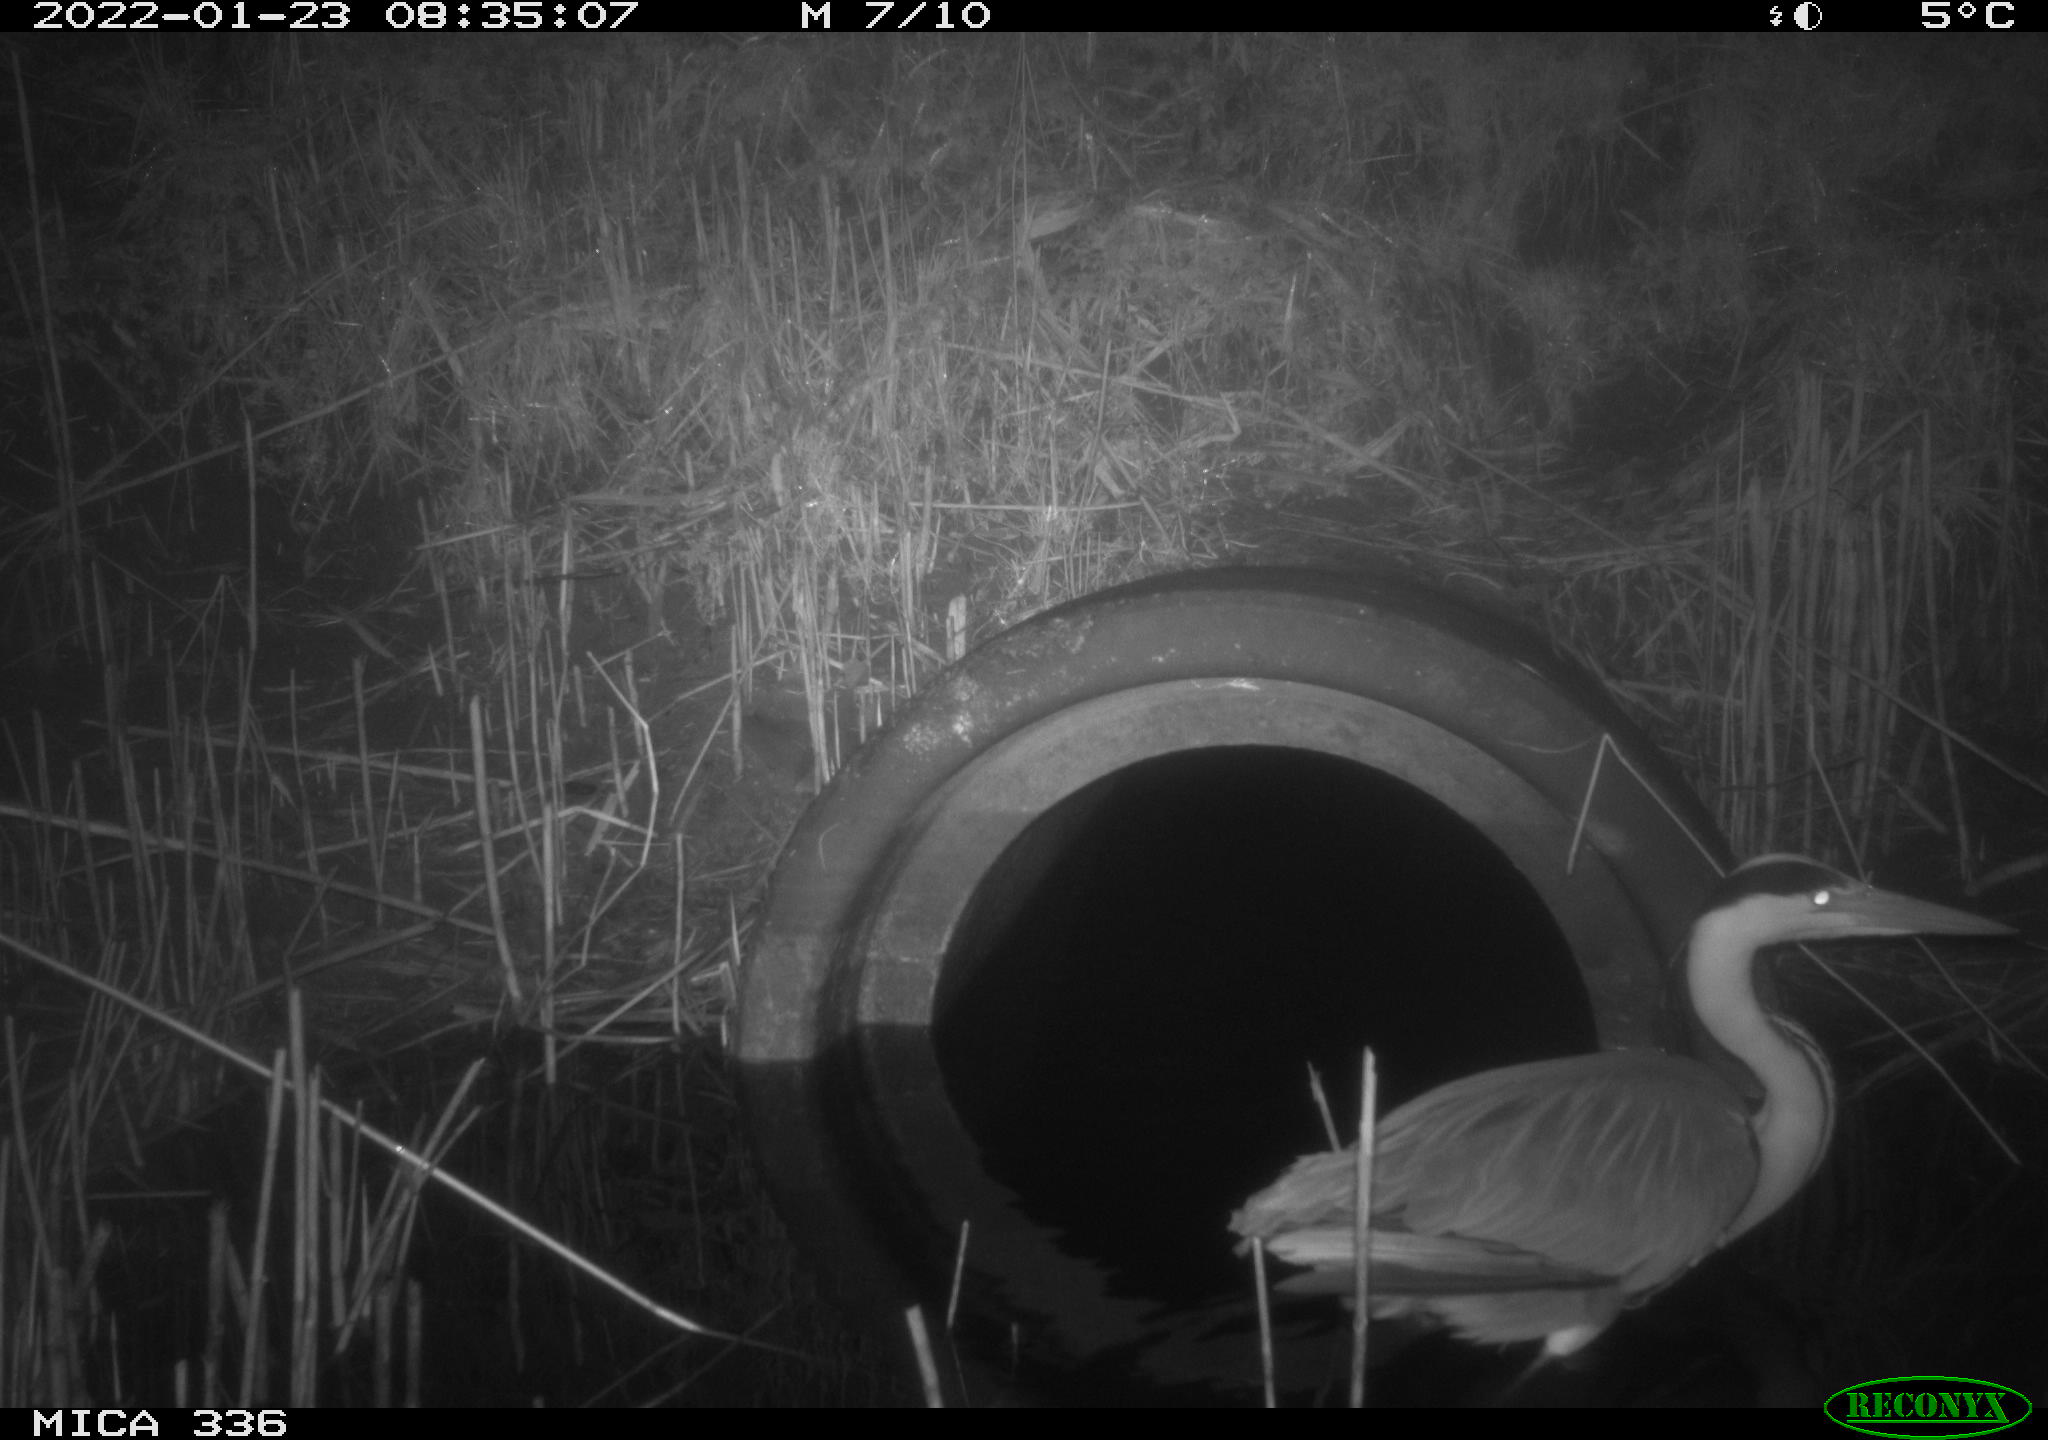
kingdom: Animalia
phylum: Chordata
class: Aves
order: Pelecaniformes
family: Ardeidae
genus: Ardea
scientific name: Ardea cinerea
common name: Grey heron
